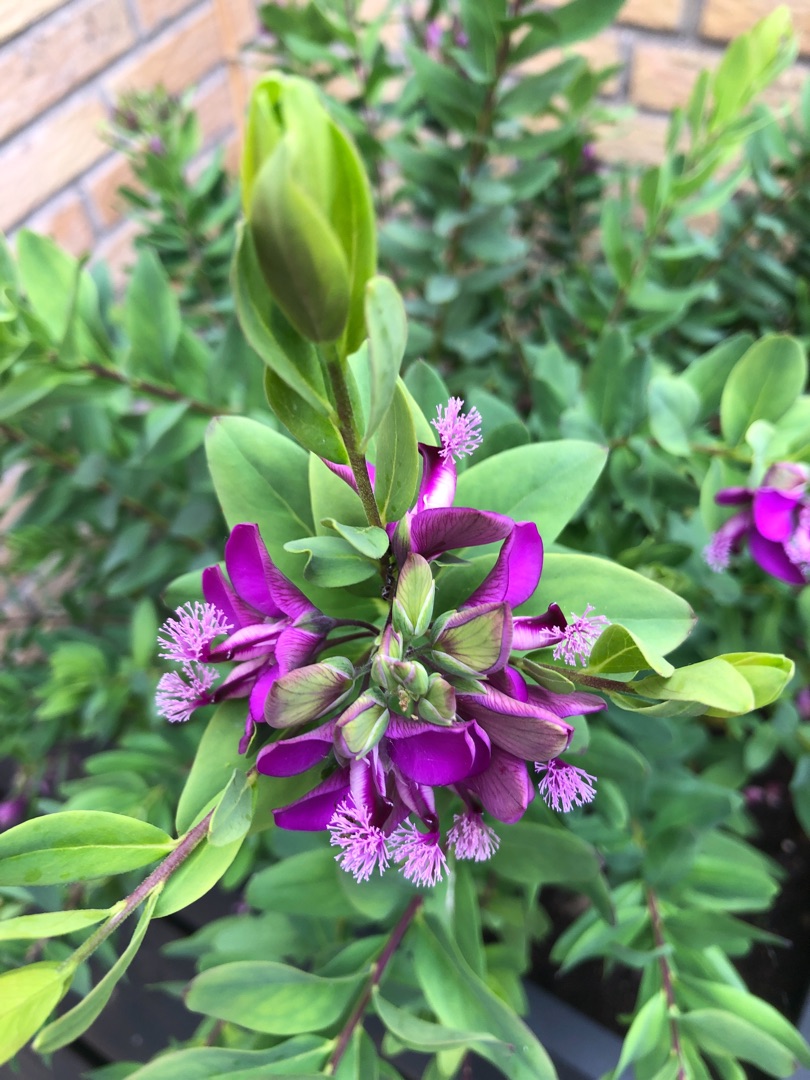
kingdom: Plantae
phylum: Tracheophyta
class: Magnoliopsida
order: Fabales
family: Polygalaceae
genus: Polygala
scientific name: Polygala
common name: Mælkeurtslægten
